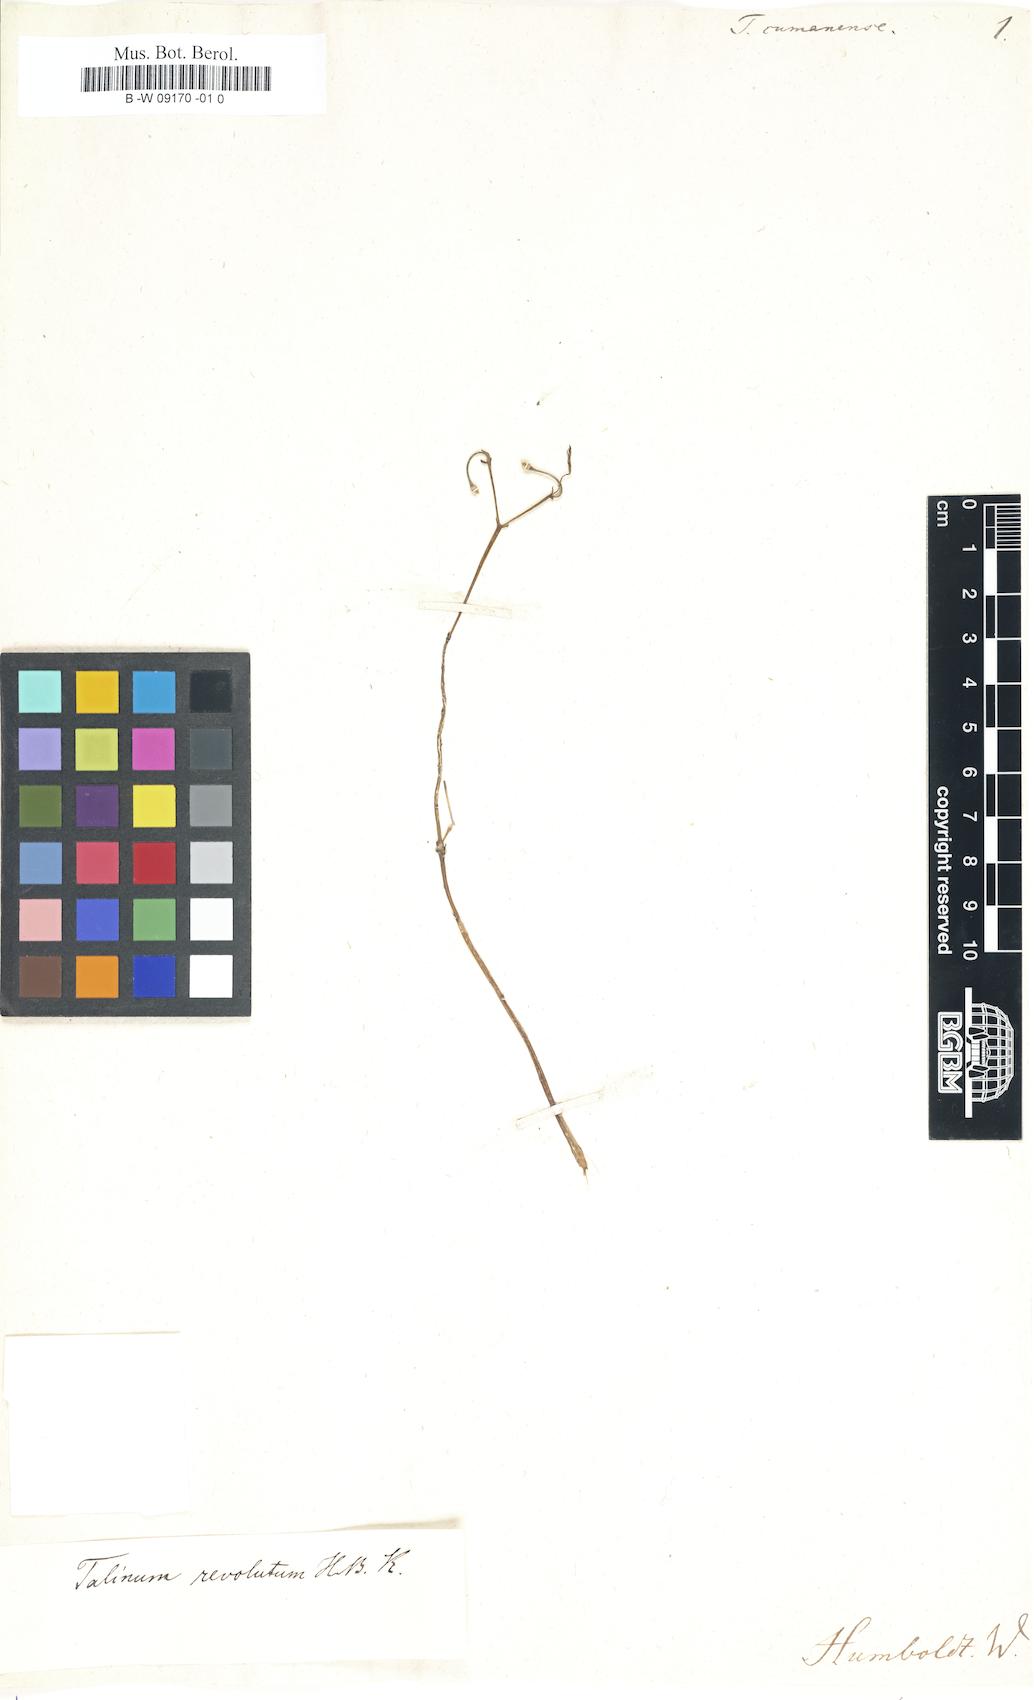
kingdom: Plantae
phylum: Tracheophyta
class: Magnoliopsida
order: Caryophyllales
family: Talinaceae
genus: Talinum
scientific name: Talinum
